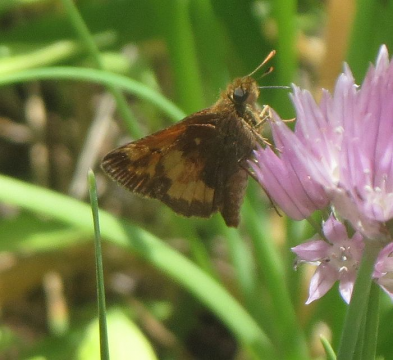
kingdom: Animalia
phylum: Arthropoda
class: Insecta
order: Lepidoptera
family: Hesperiidae
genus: Lon
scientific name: Lon hobomok
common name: Hobomok Skipper
